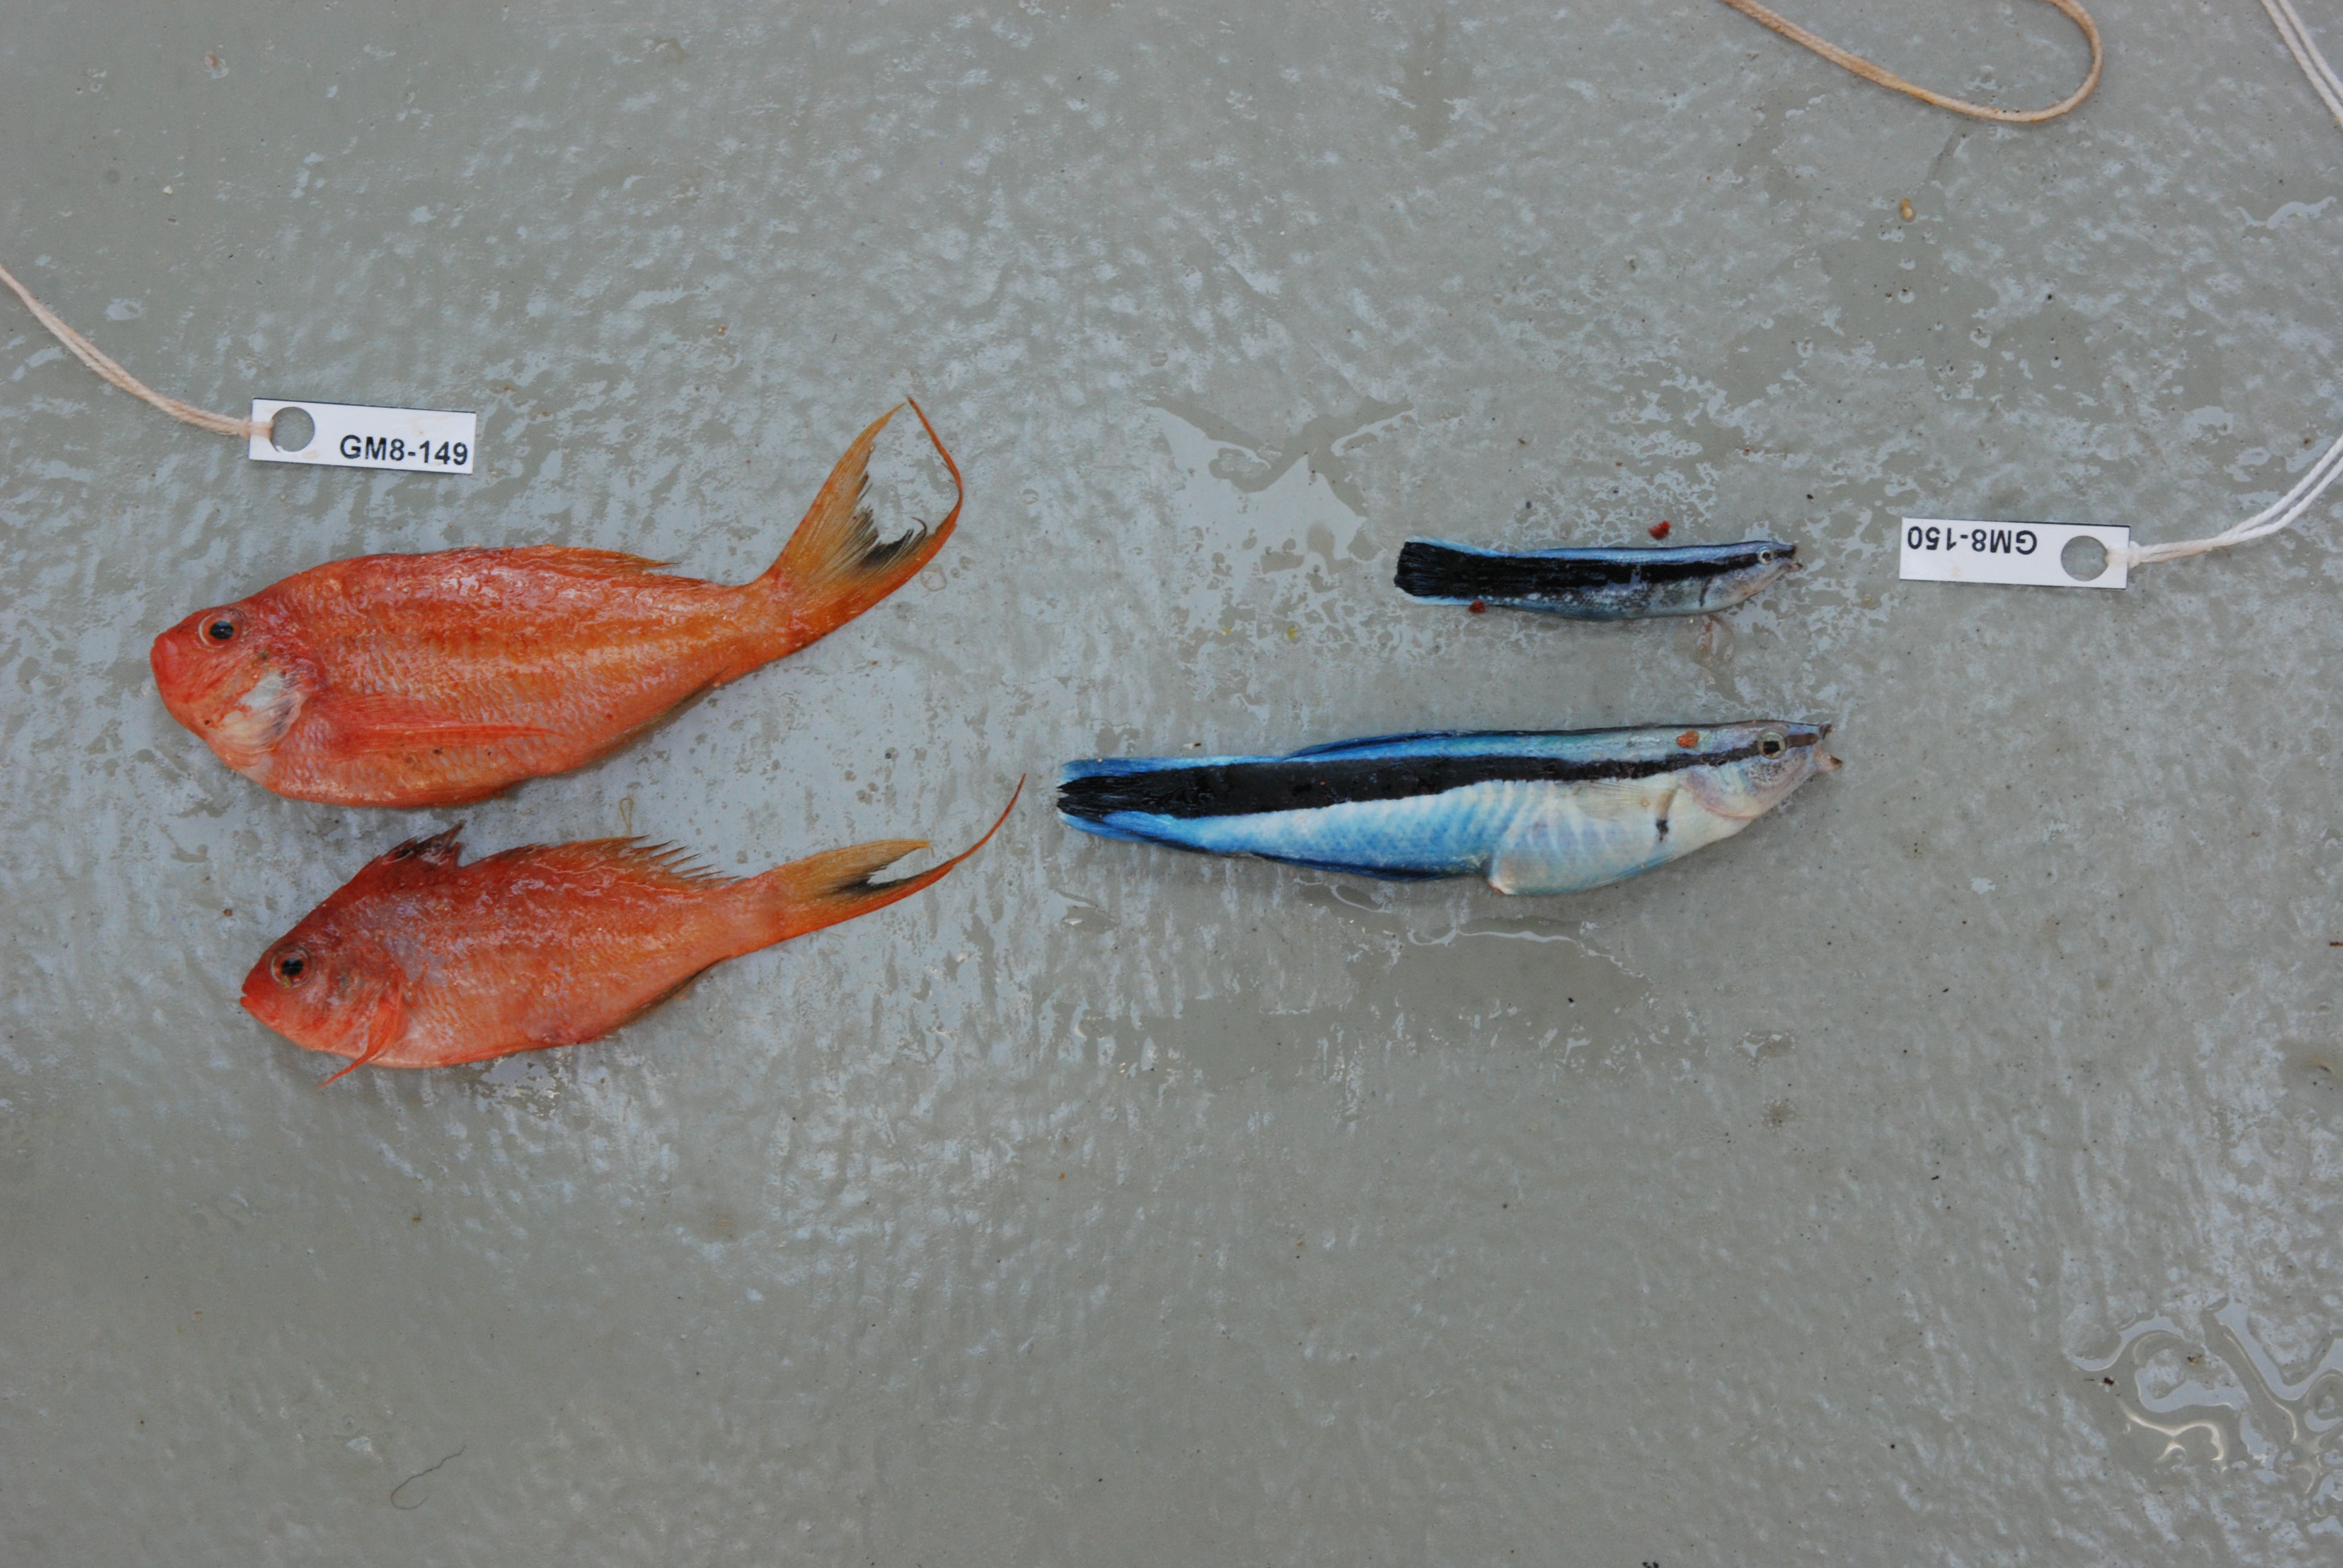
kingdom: Animalia
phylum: Chordata
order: Perciformes
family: Labridae
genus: Labroides
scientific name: Labroides dimidiatus
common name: Blue diesel wrasse
